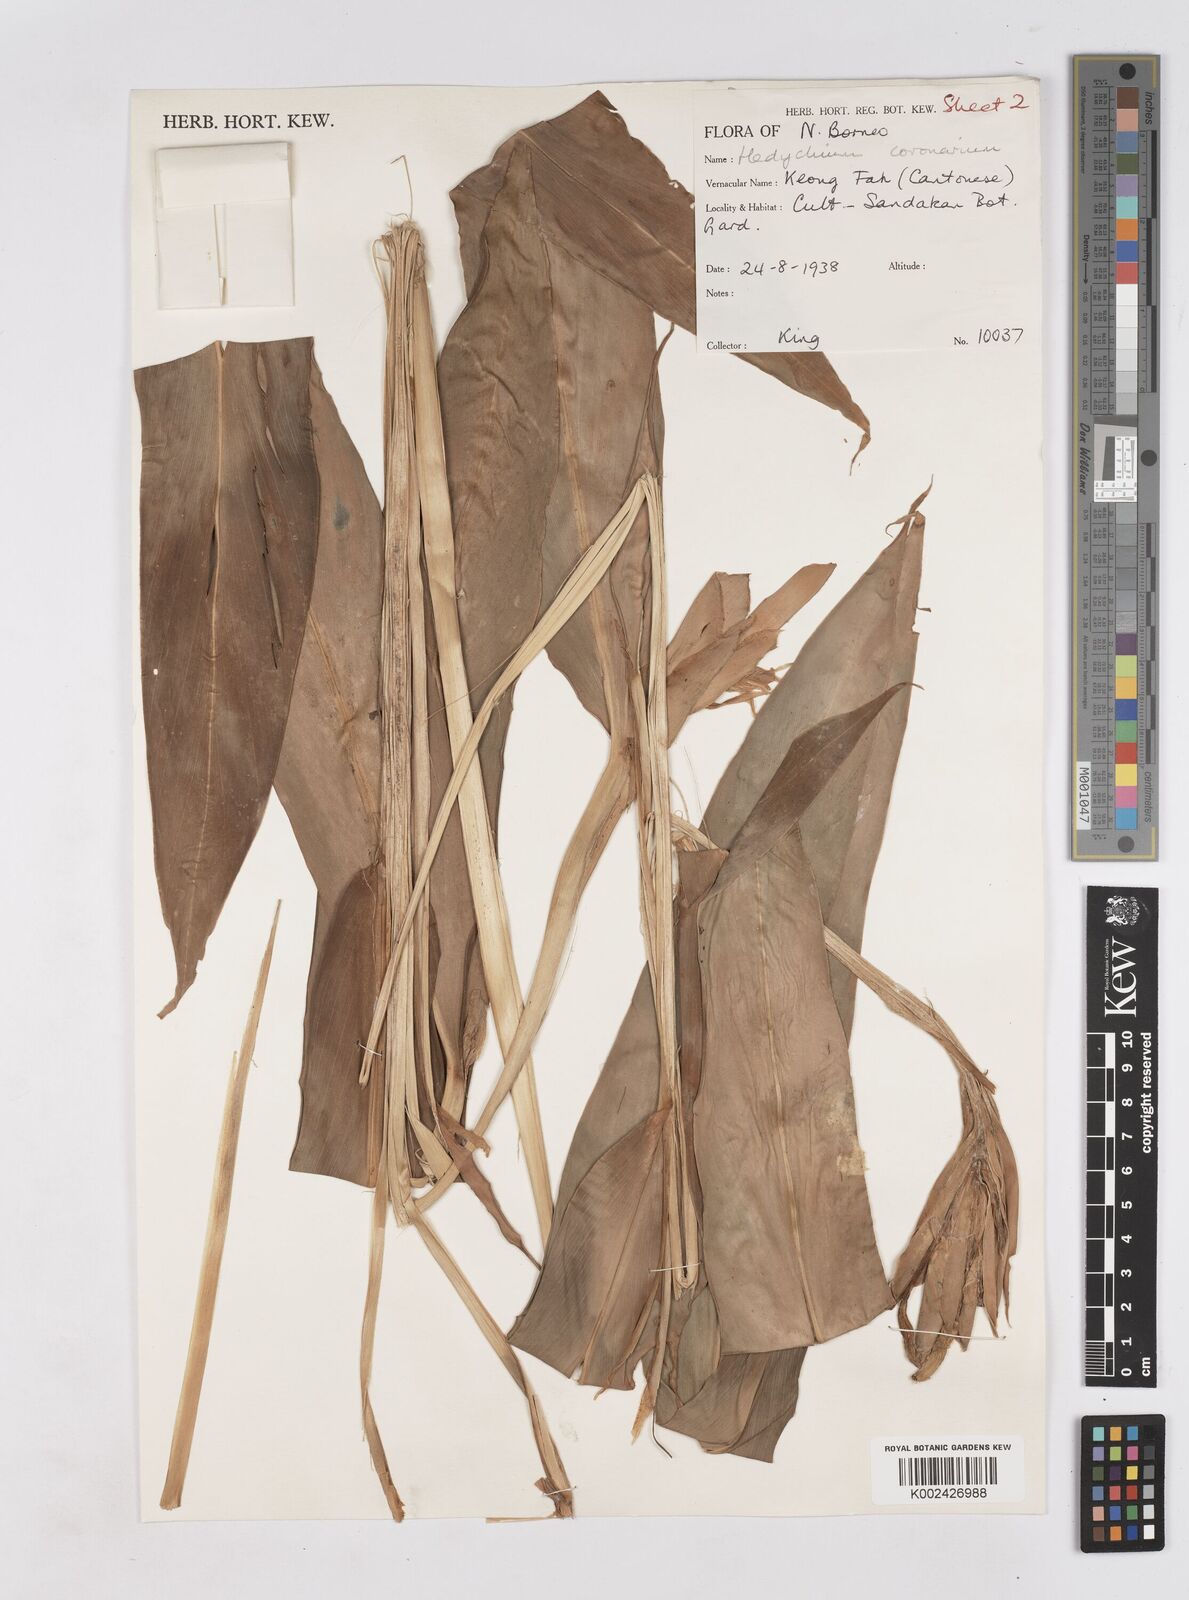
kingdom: Plantae
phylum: Tracheophyta
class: Liliopsida
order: Zingiberales
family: Zingiberaceae
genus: Hedychium
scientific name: Hedychium coronarium
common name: White garland-lily
